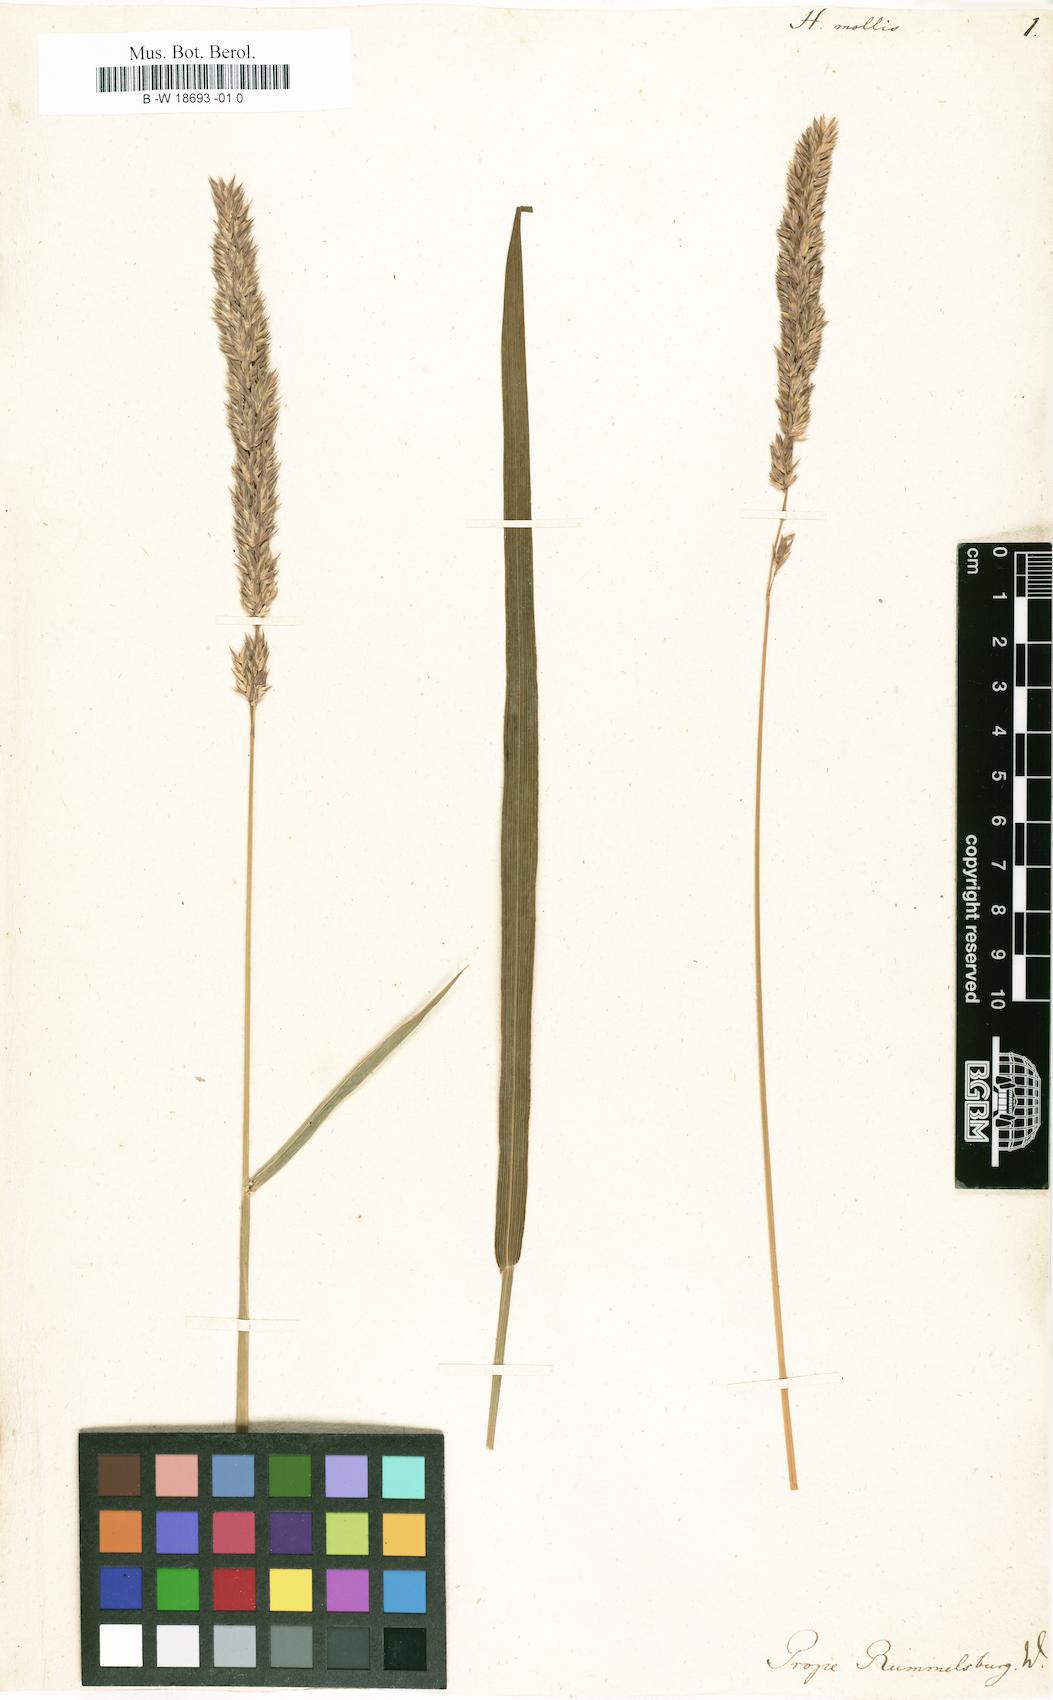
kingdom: Plantae
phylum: Tracheophyta
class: Liliopsida
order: Poales
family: Poaceae
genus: Holcus
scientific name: Holcus mollis
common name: Creeping velvetgrass
